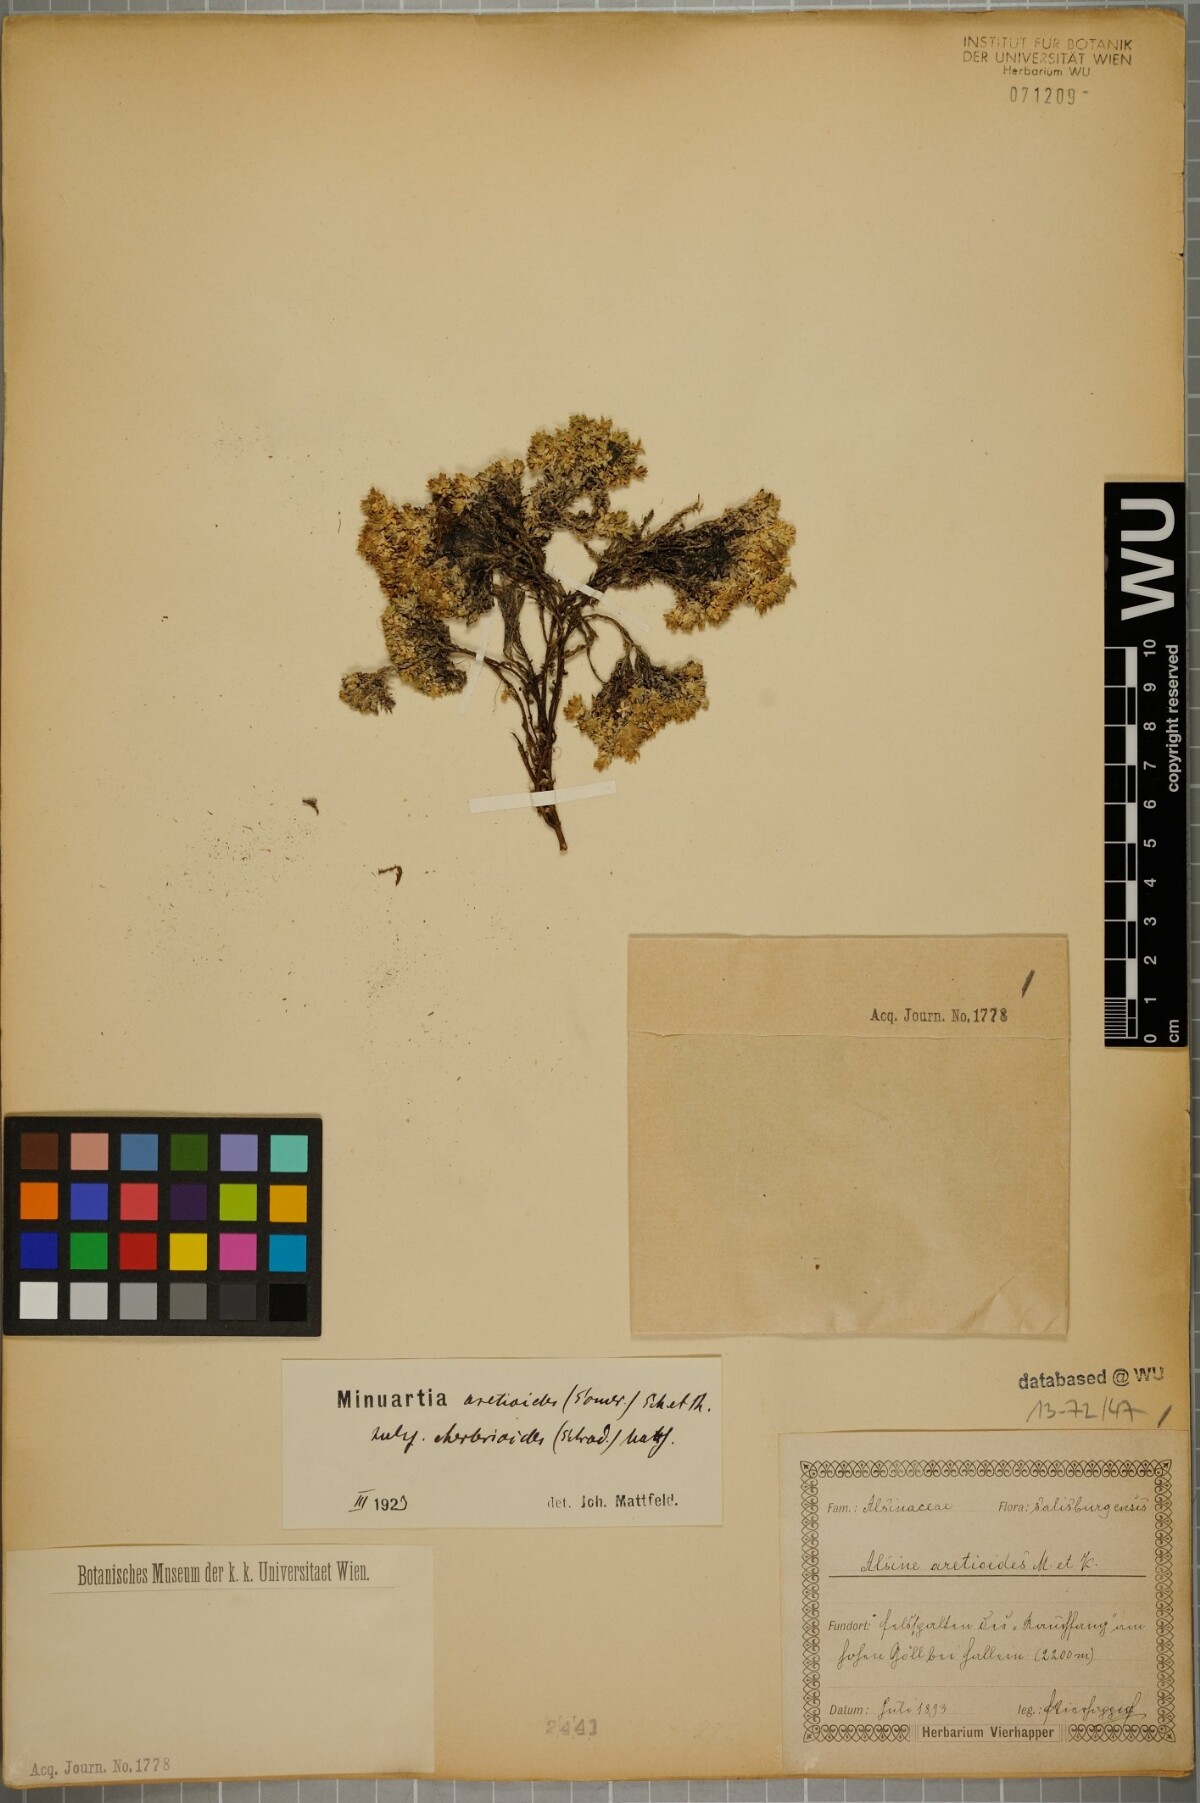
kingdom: Plantae
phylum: Tracheophyta
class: Magnoliopsida
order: Caryophyllales
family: Caryophyllaceae
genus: Facchinia
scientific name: Facchinia cherlerioides
